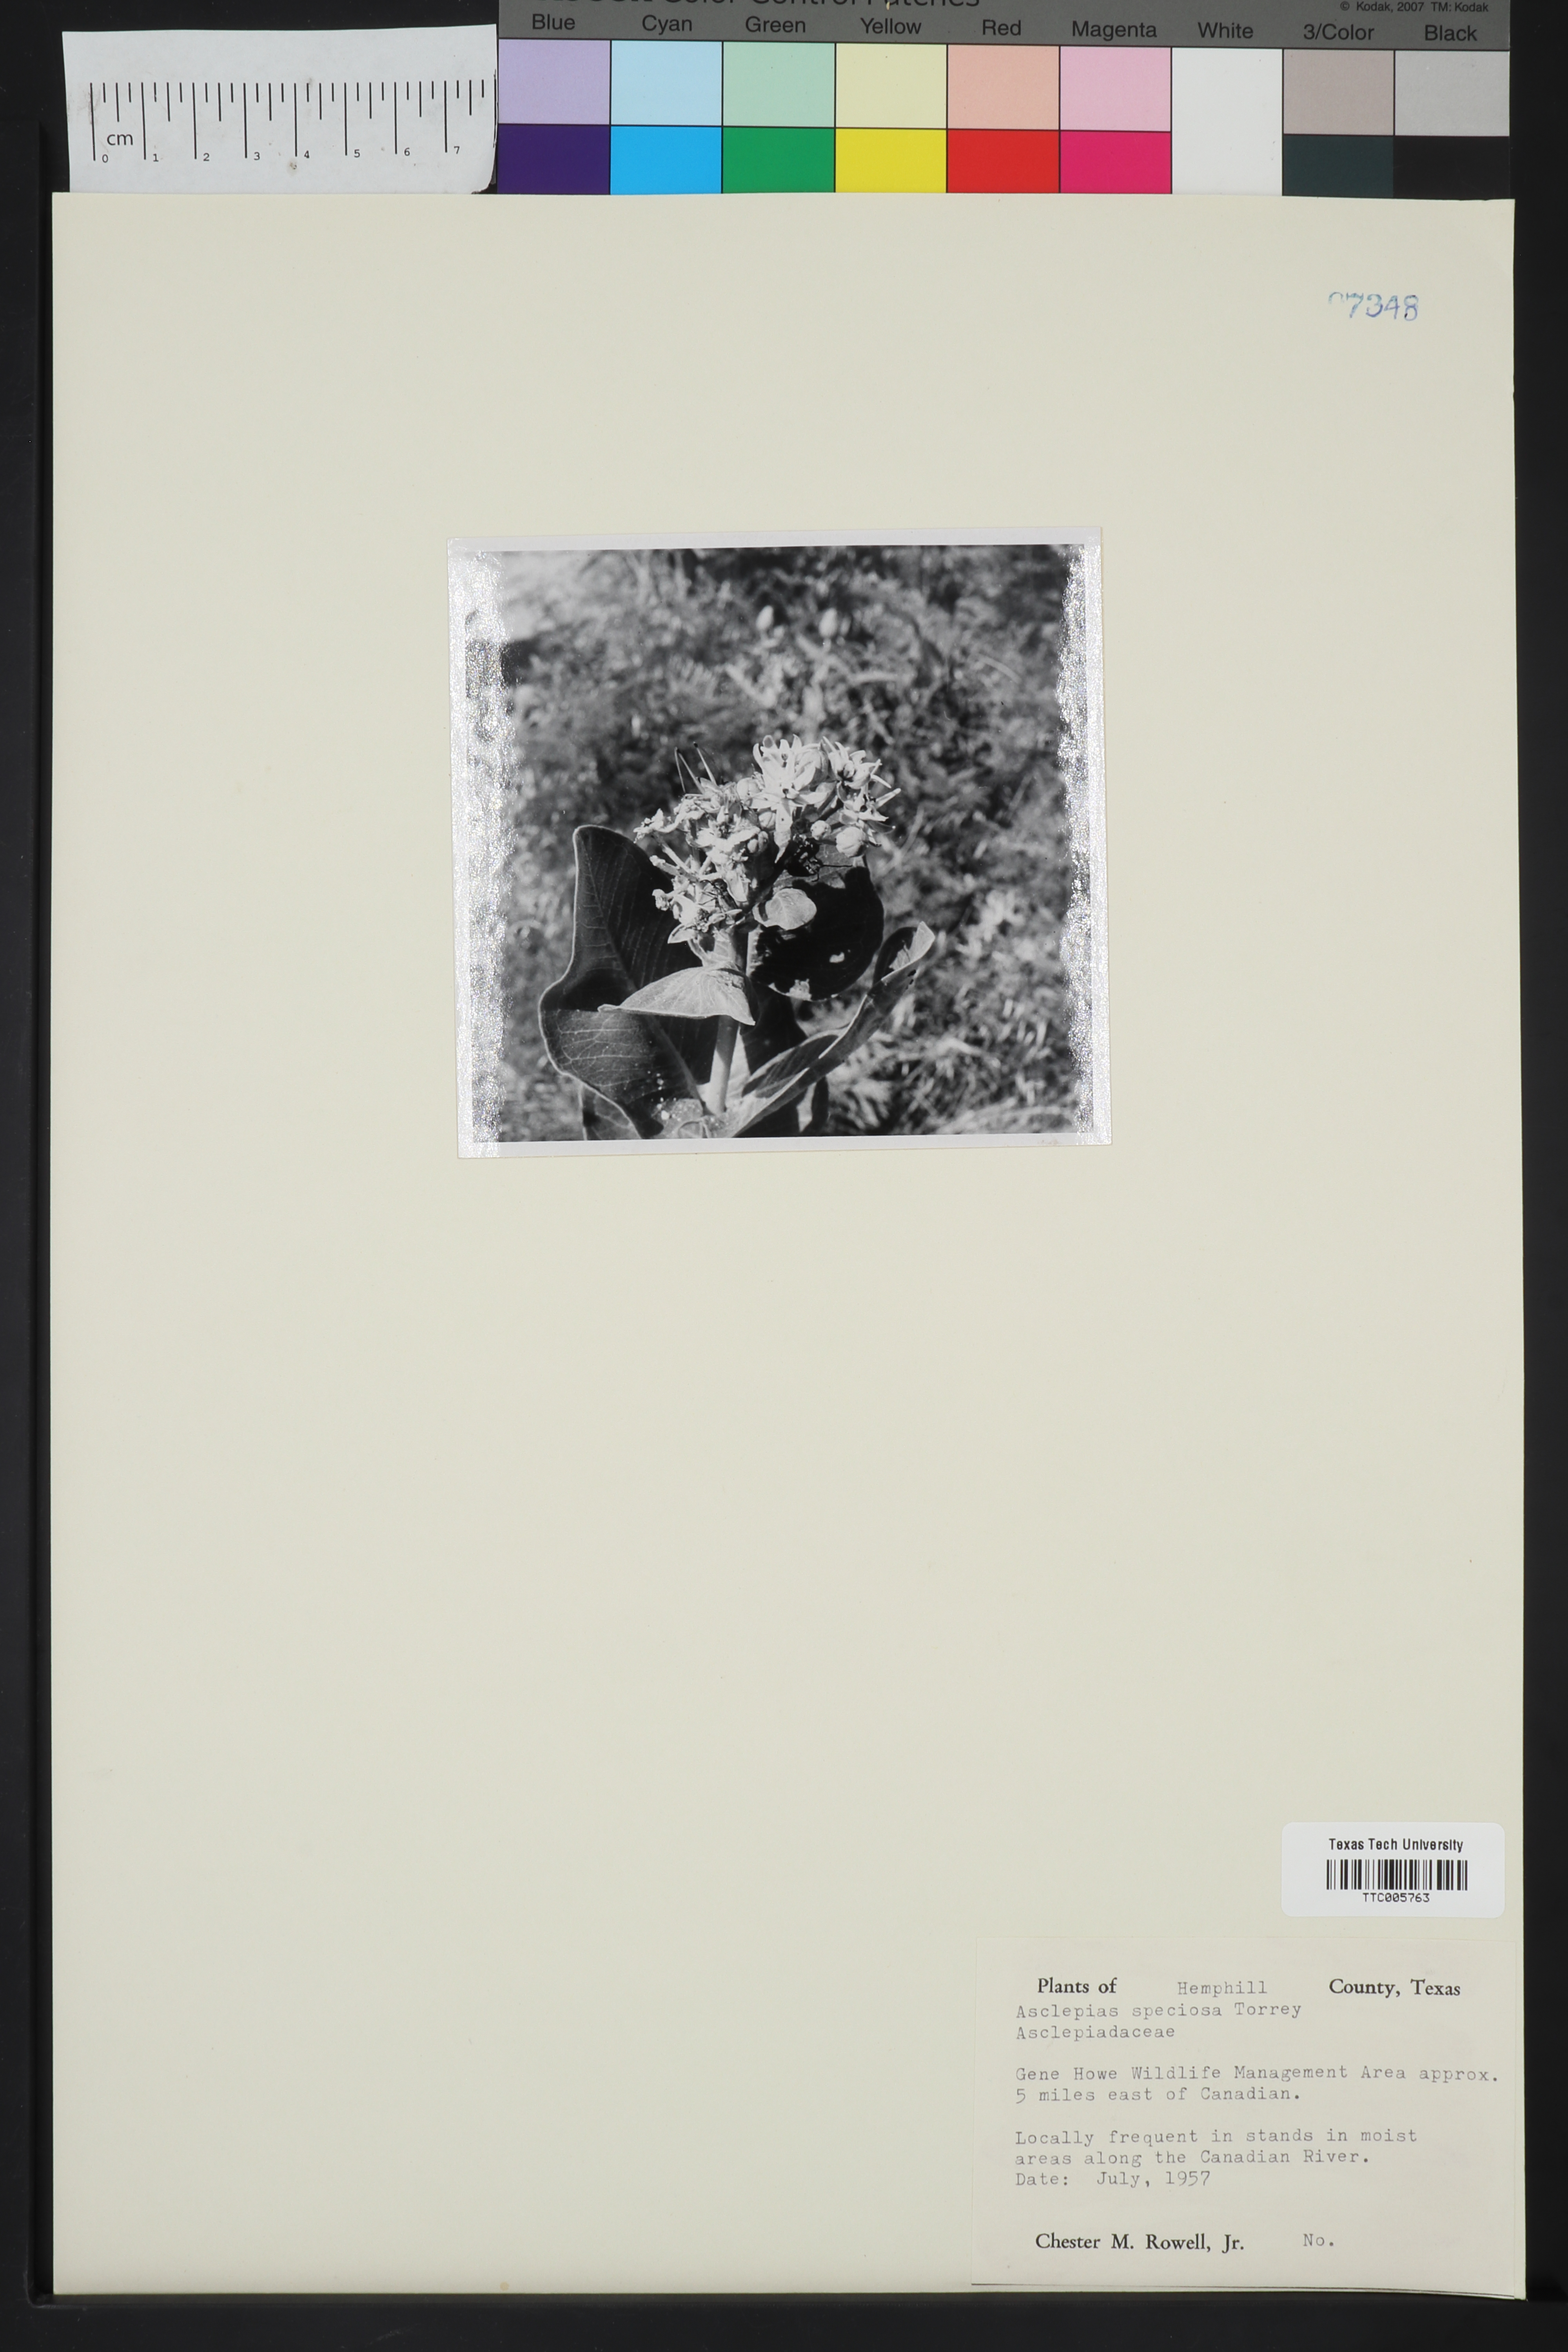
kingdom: Plantae
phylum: Tracheophyta
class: Magnoliopsida
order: Gentianales
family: Apocynaceae
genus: Asclepias
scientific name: Asclepias speciosa
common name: Showy milkweed
